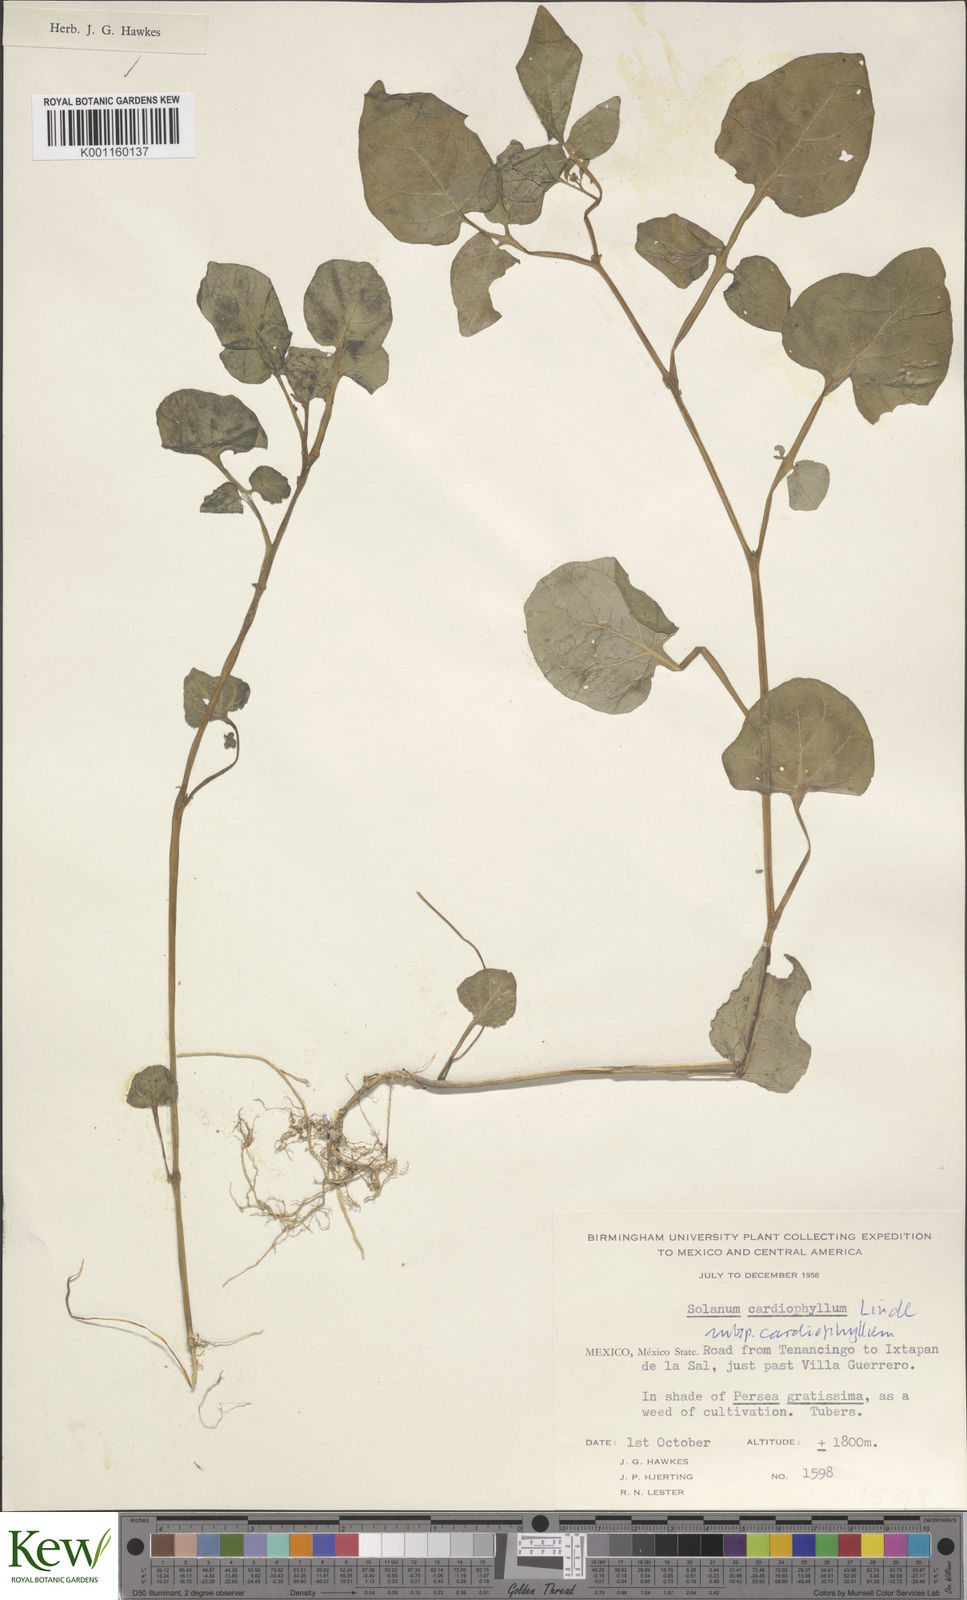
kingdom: Plantae
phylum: Tracheophyta
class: Magnoliopsida
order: Solanales
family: Solanaceae
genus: Solanum
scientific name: Solanum cardiophyllum
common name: Heartleaf horsenettle
